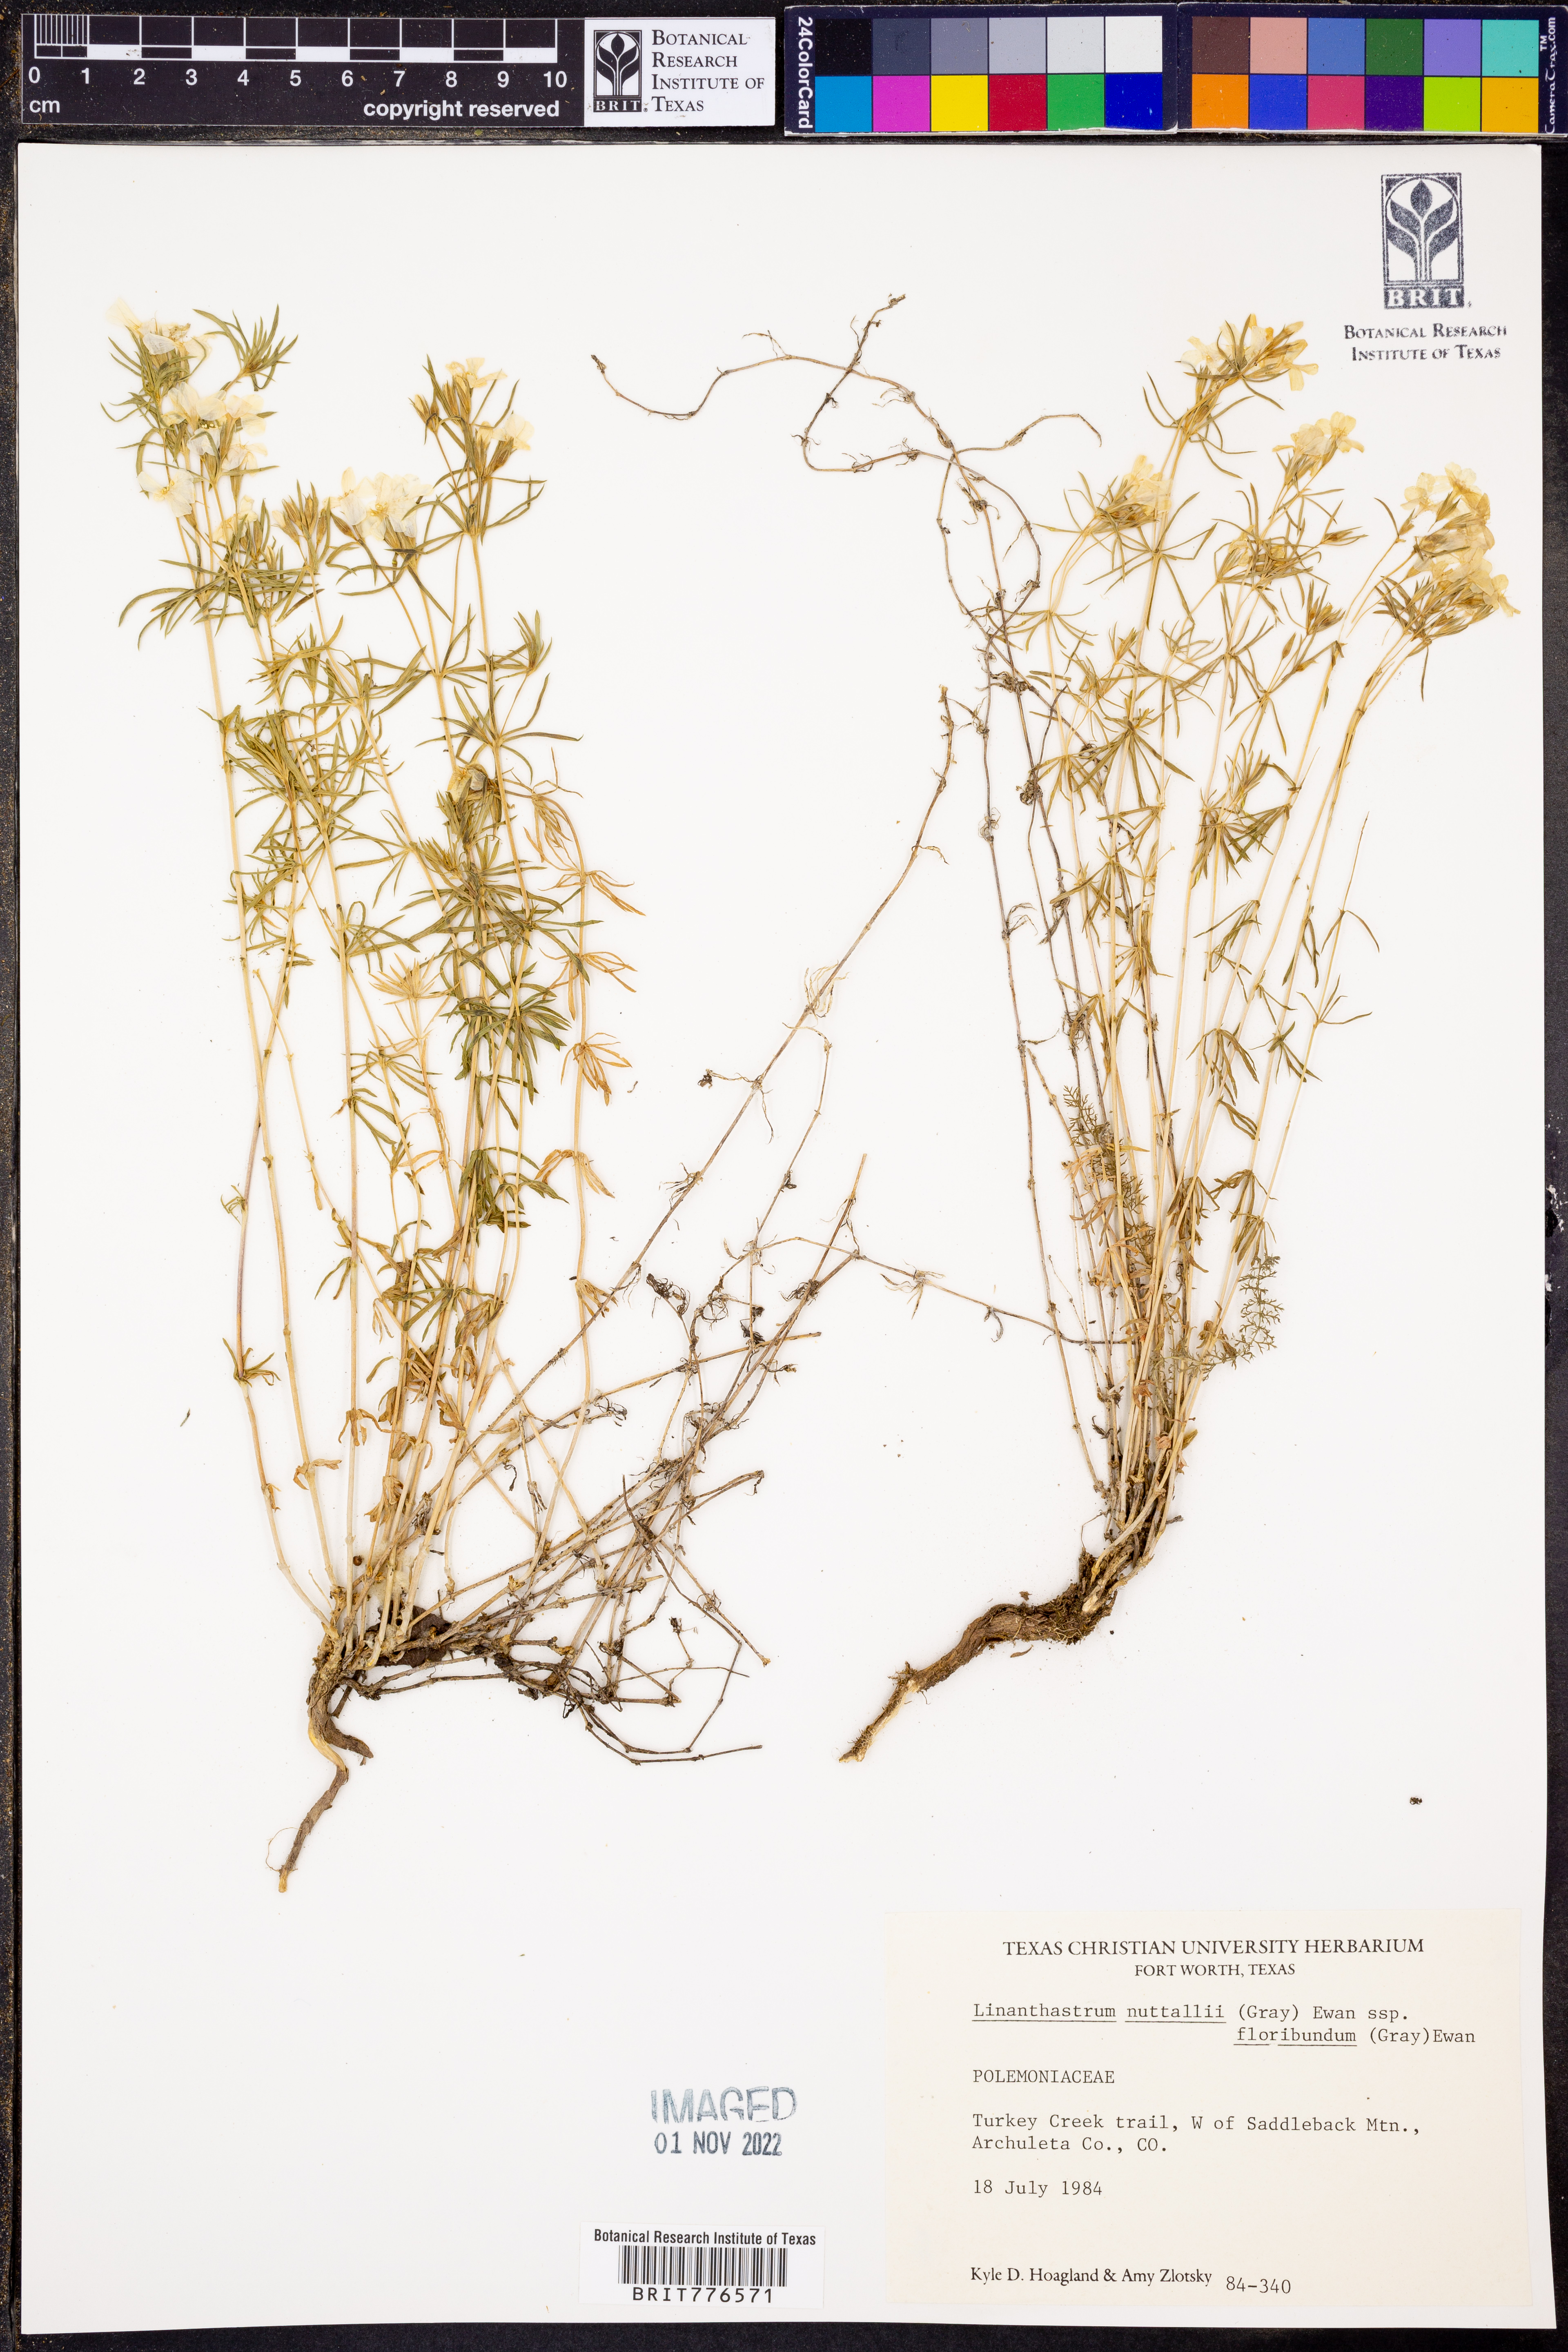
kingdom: Plantae
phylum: Tracheophyta
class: Magnoliopsida
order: Ericales
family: Polemoniaceae
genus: Leptosiphon
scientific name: Leptosiphon floribundum
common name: Many-flower linanthus
